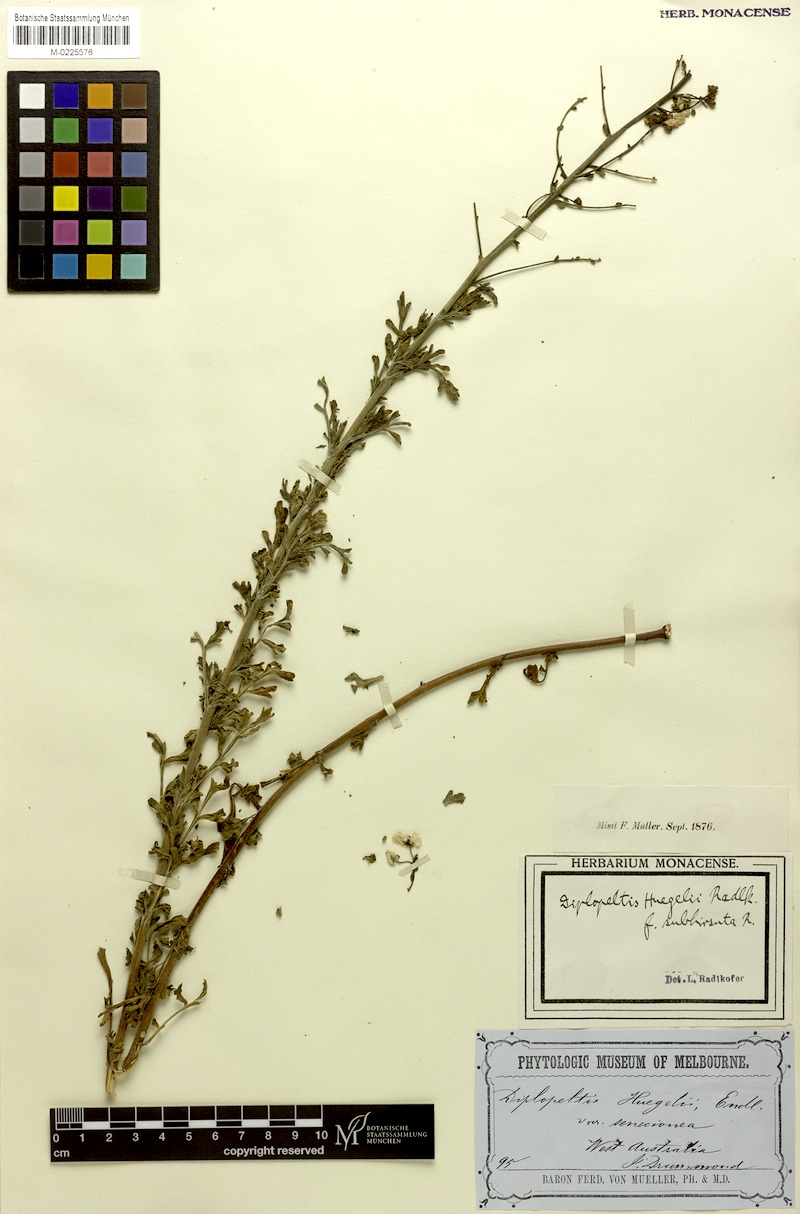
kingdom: Plantae
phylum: Tracheophyta
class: Magnoliopsida
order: Sapindales
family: Sapindaceae
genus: Diplopeltis
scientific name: Diplopeltis huegelii
